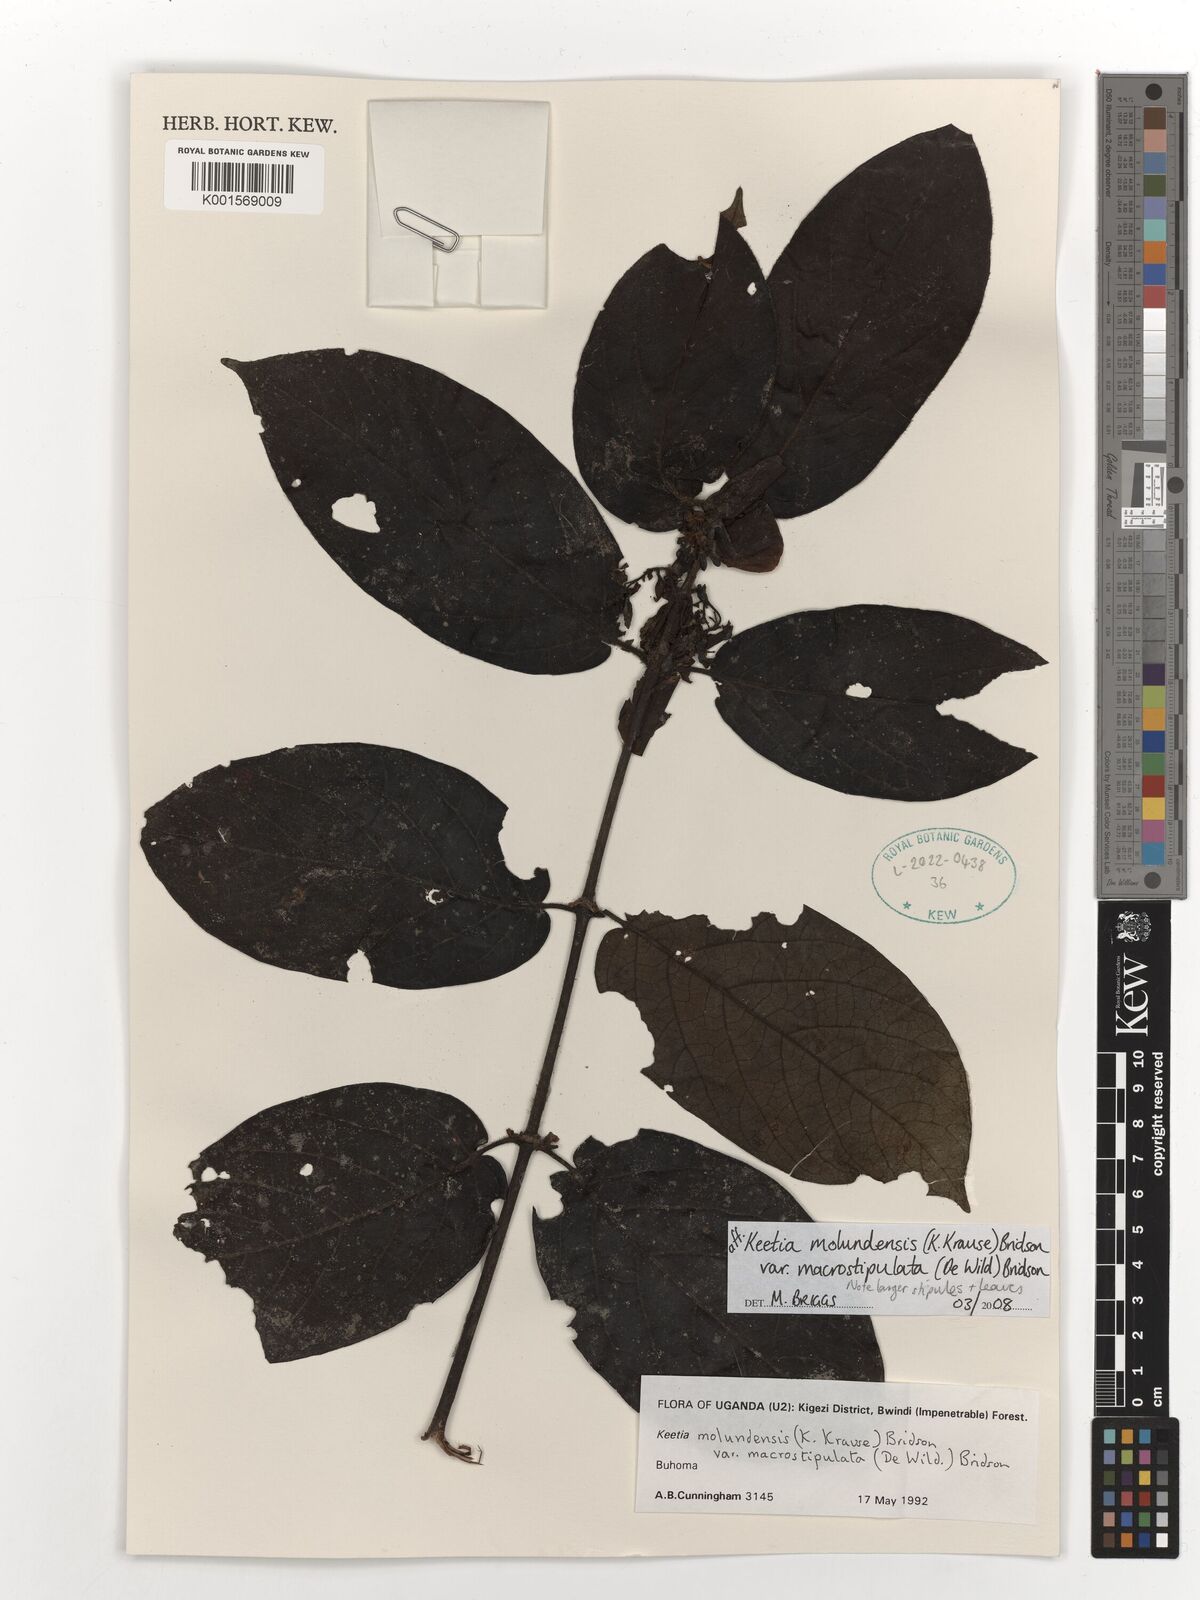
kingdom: Plantae
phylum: Tracheophyta
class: Magnoliopsida
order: Gentianales
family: Rubiaceae
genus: Keetia
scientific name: Keetia molundensis
